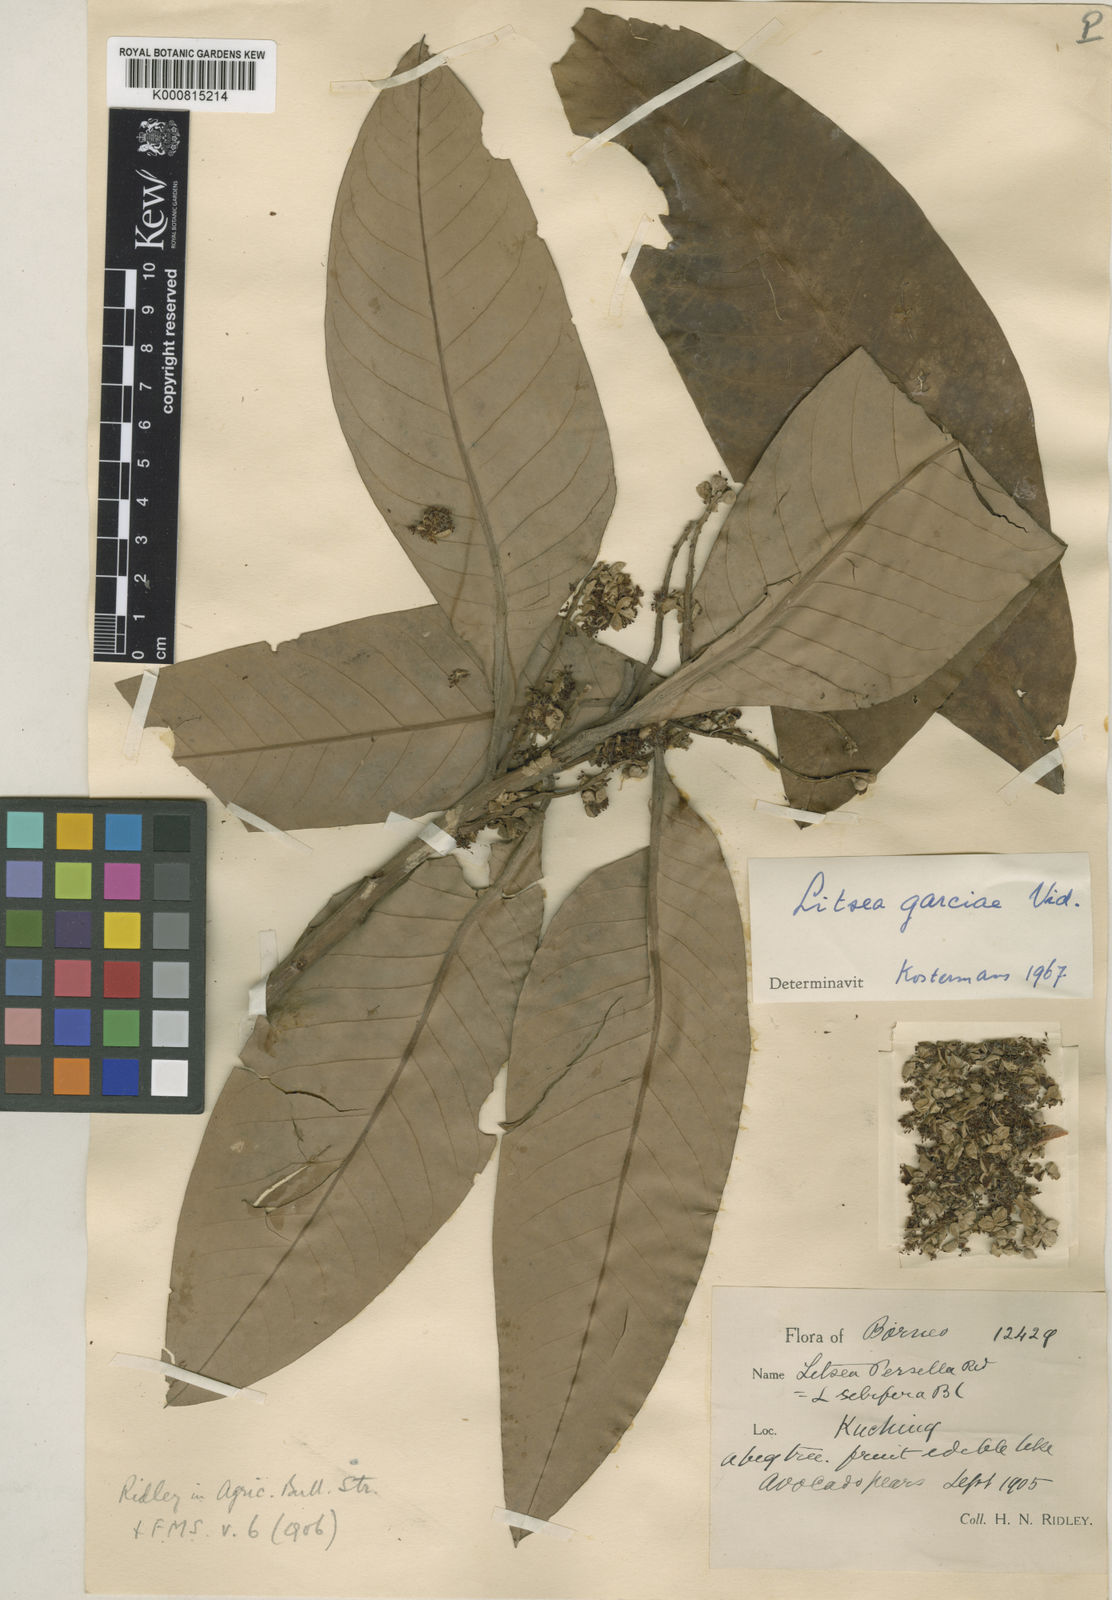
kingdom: Plantae
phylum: Tracheophyta
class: Magnoliopsida
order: Laurales
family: Lauraceae
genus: Litsea
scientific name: Litsea garciae
